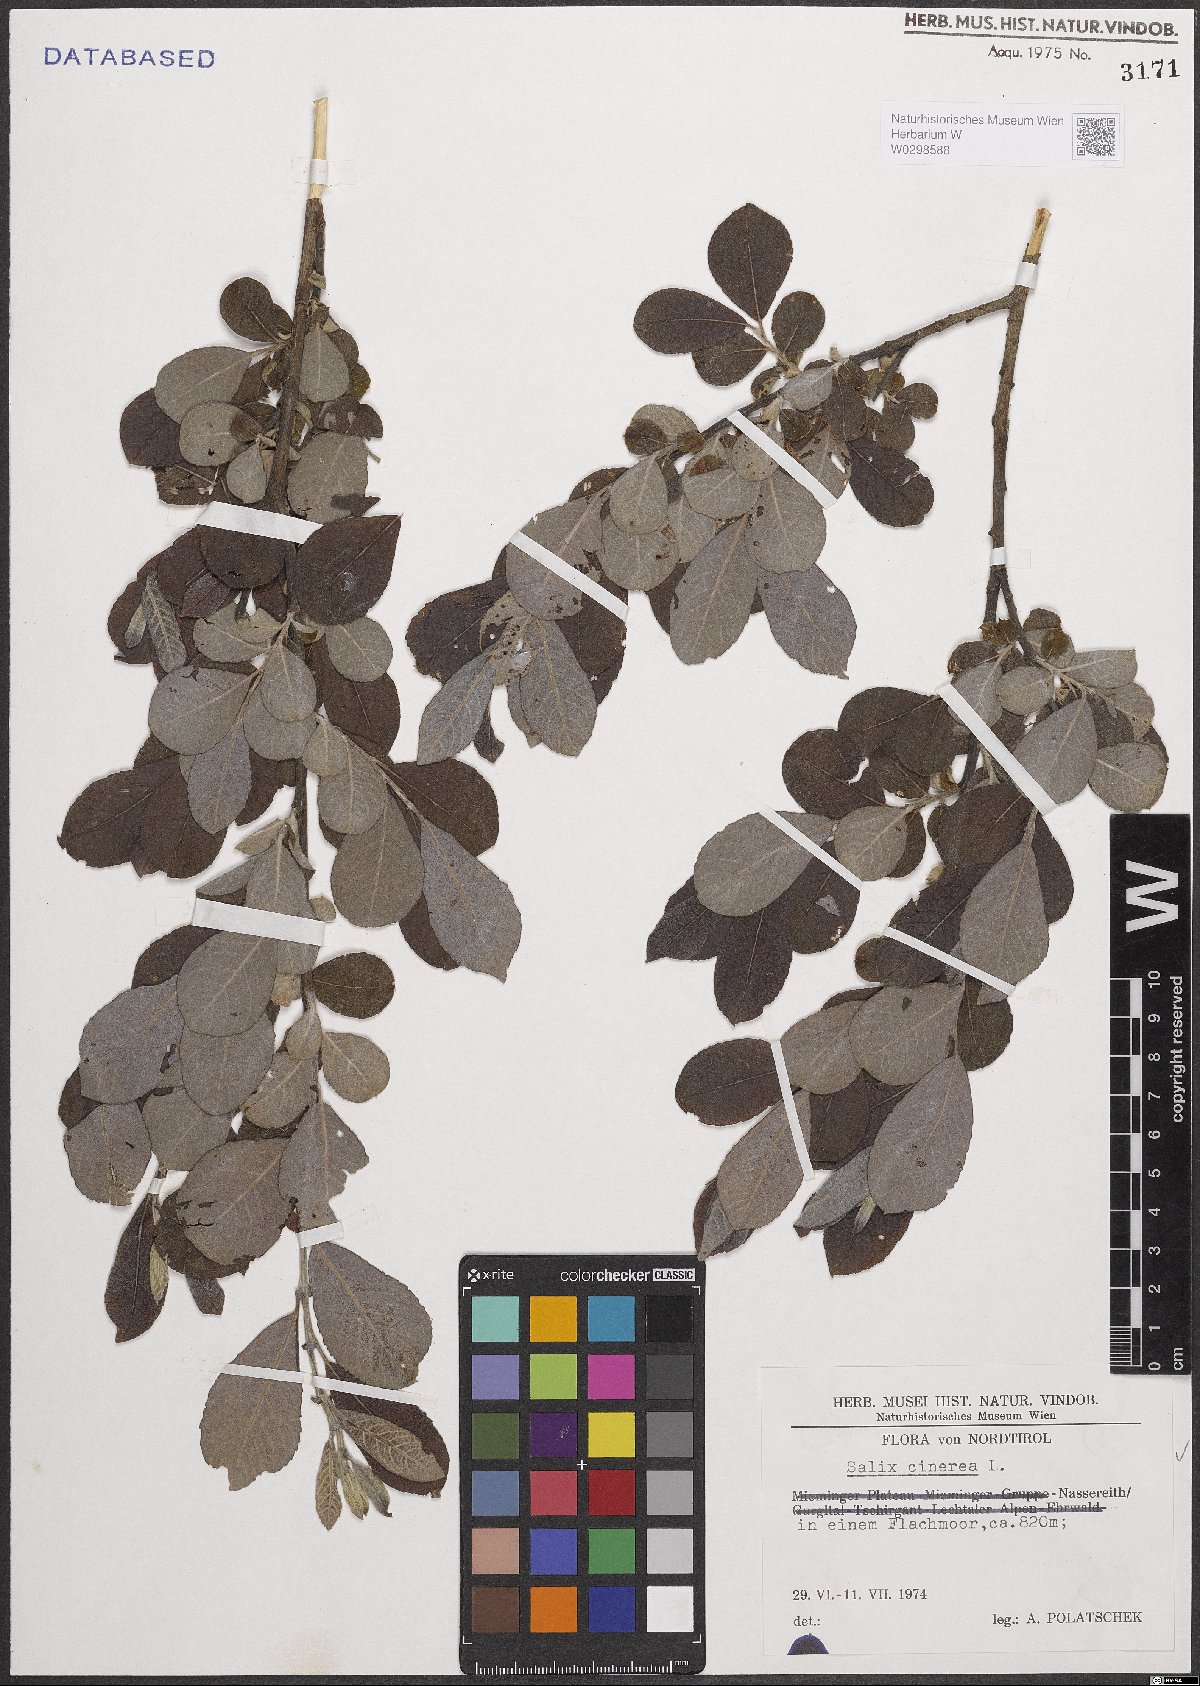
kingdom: Plantae
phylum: Tracheophyta
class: Magnoliopsida
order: Malpighiales
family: Salicaceae
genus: Salix
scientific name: Salix cinerea
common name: Common sallow
